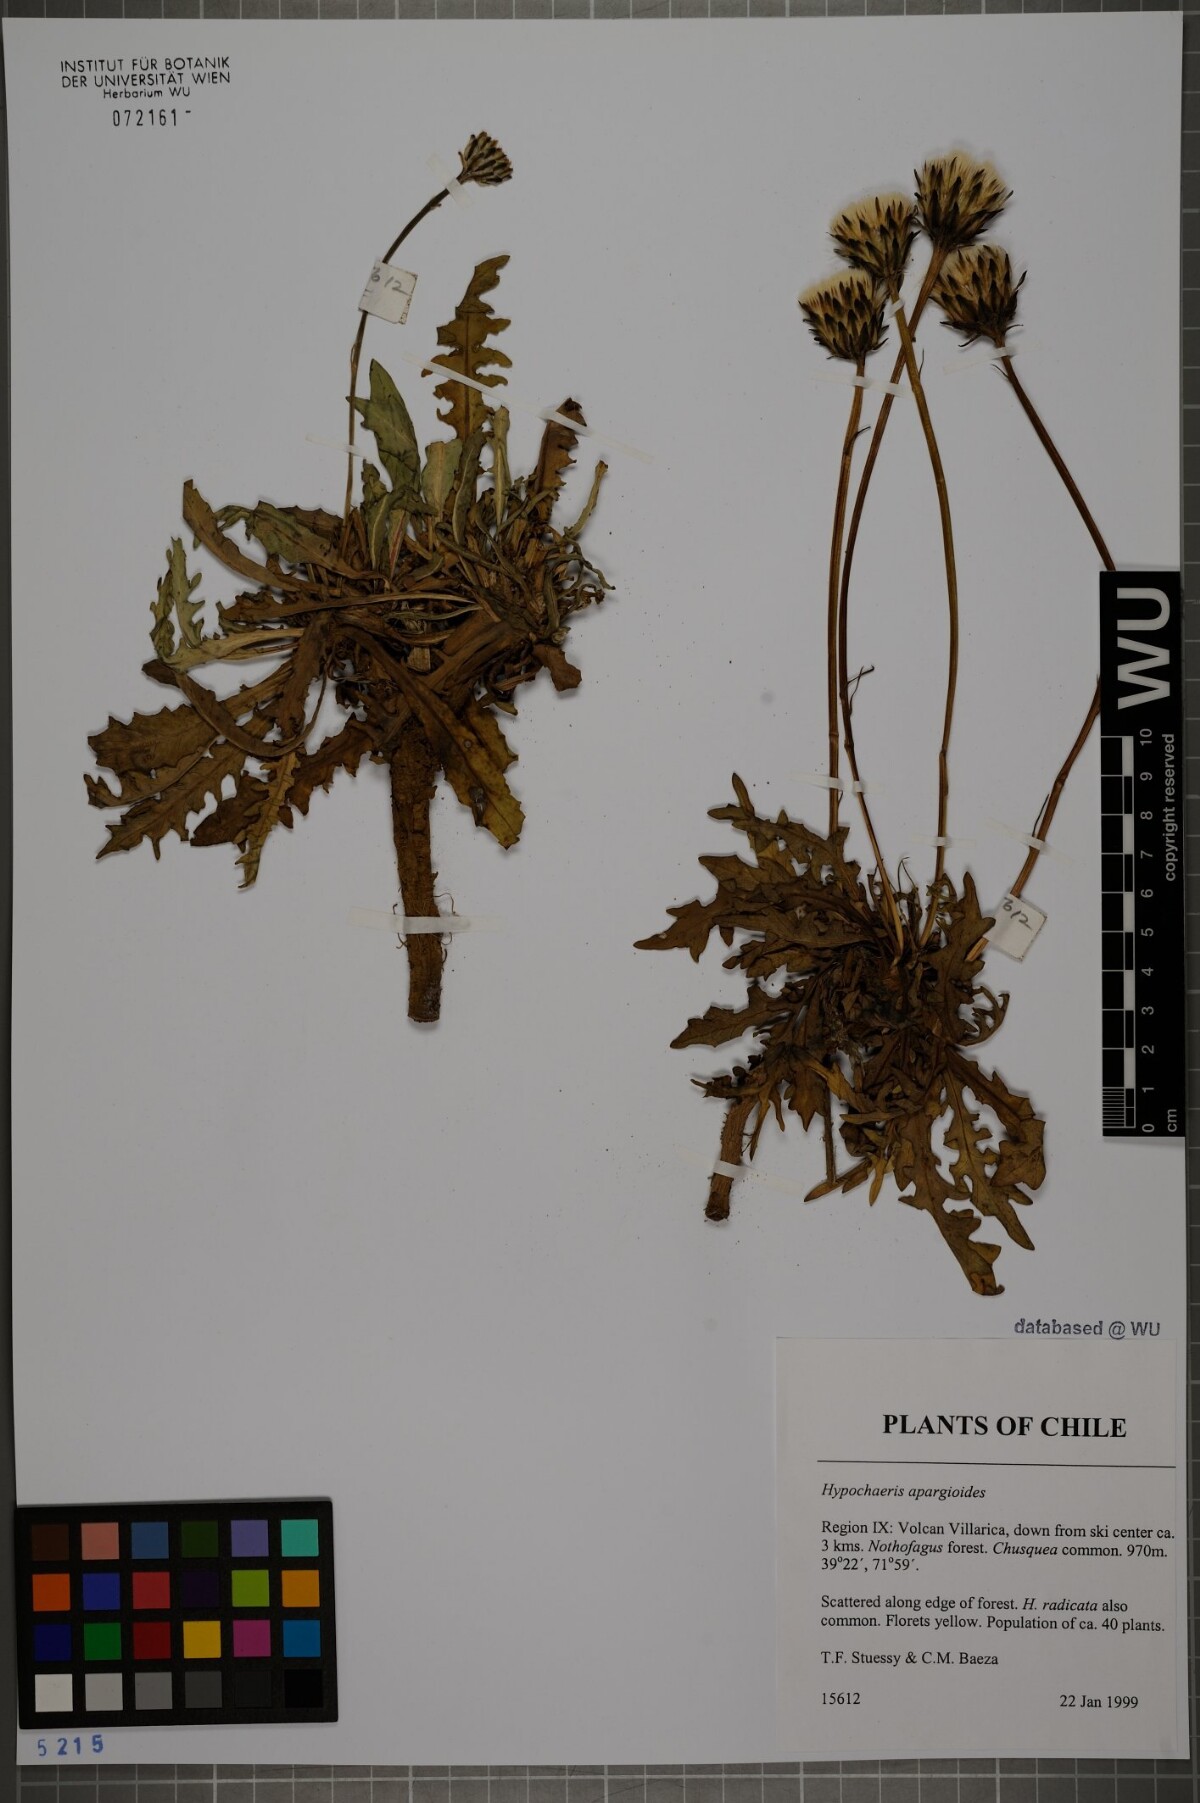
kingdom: Plantae
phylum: Tracheophyta
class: Magnoliopsida
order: Asterales
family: Asteraceae
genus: Hypochaeris
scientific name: Hypochaeris apargioides
